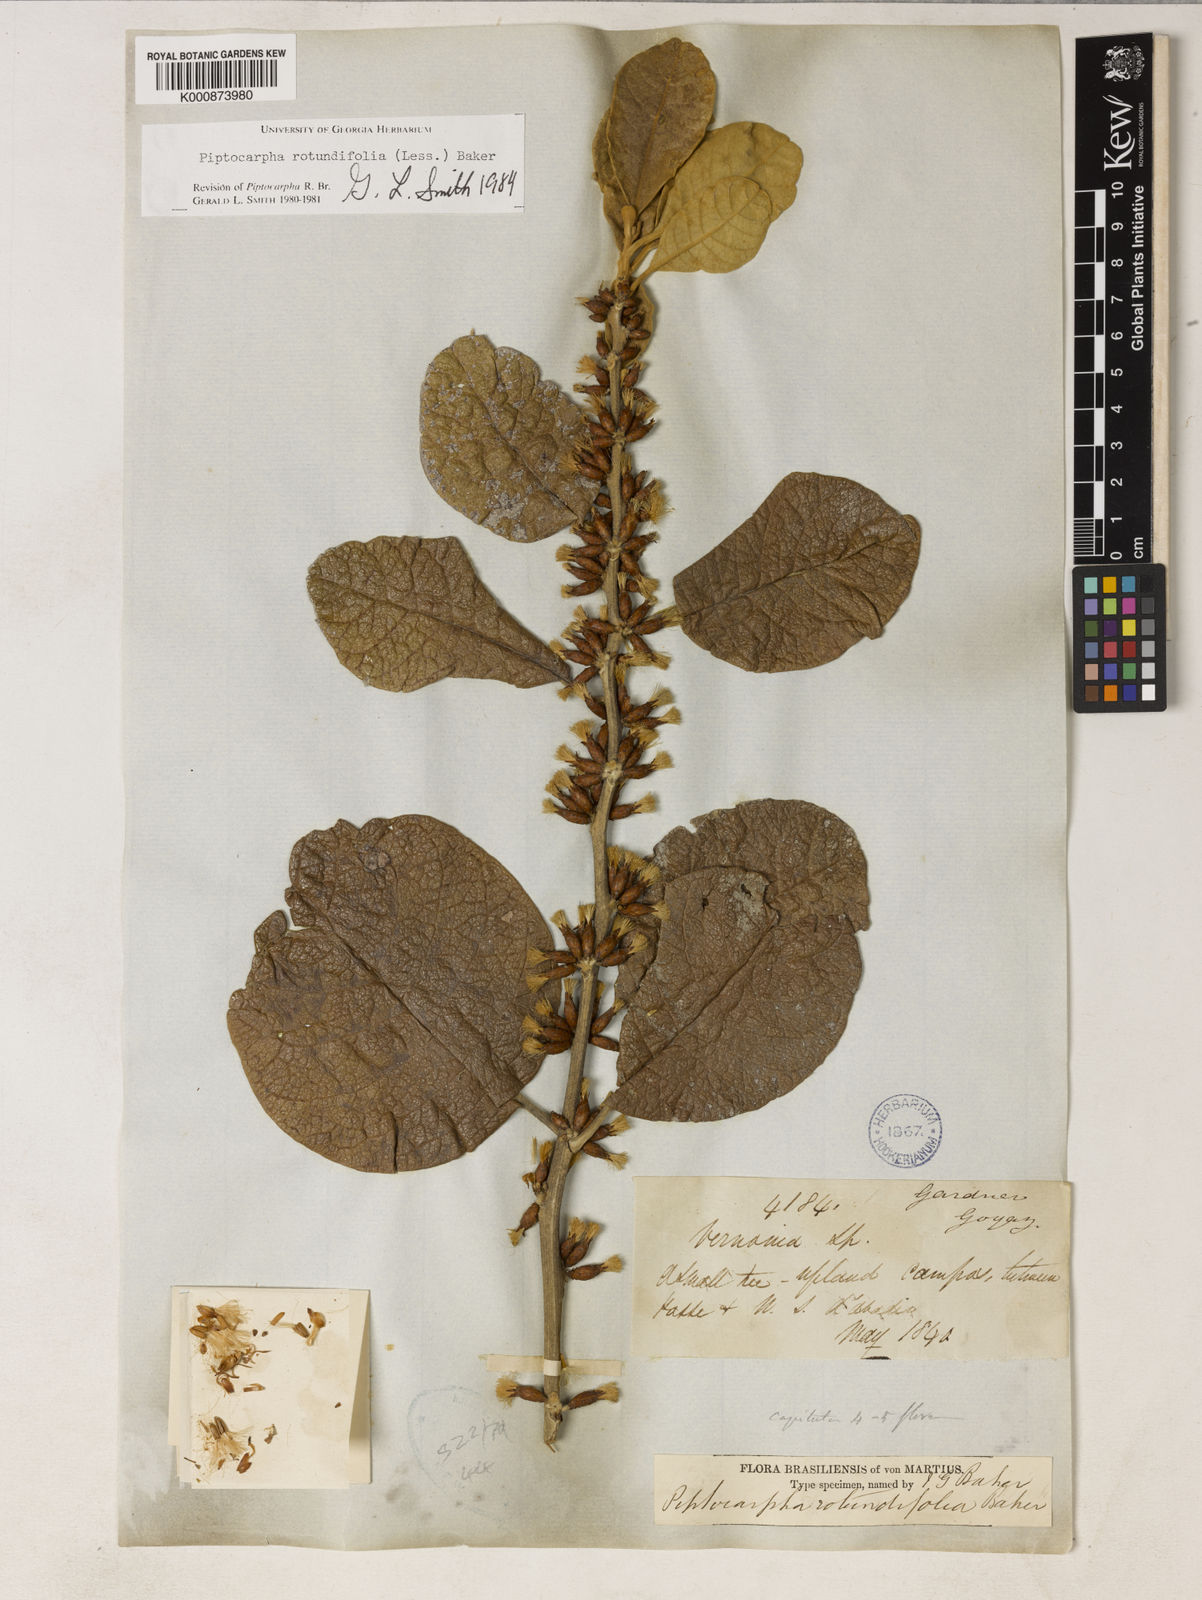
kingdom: Plantae
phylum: Tracheophyta
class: Magnoliopsida
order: Asterales
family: Asteraceae
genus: Piptocarpha
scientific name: Piptocarpha rotundifolia
